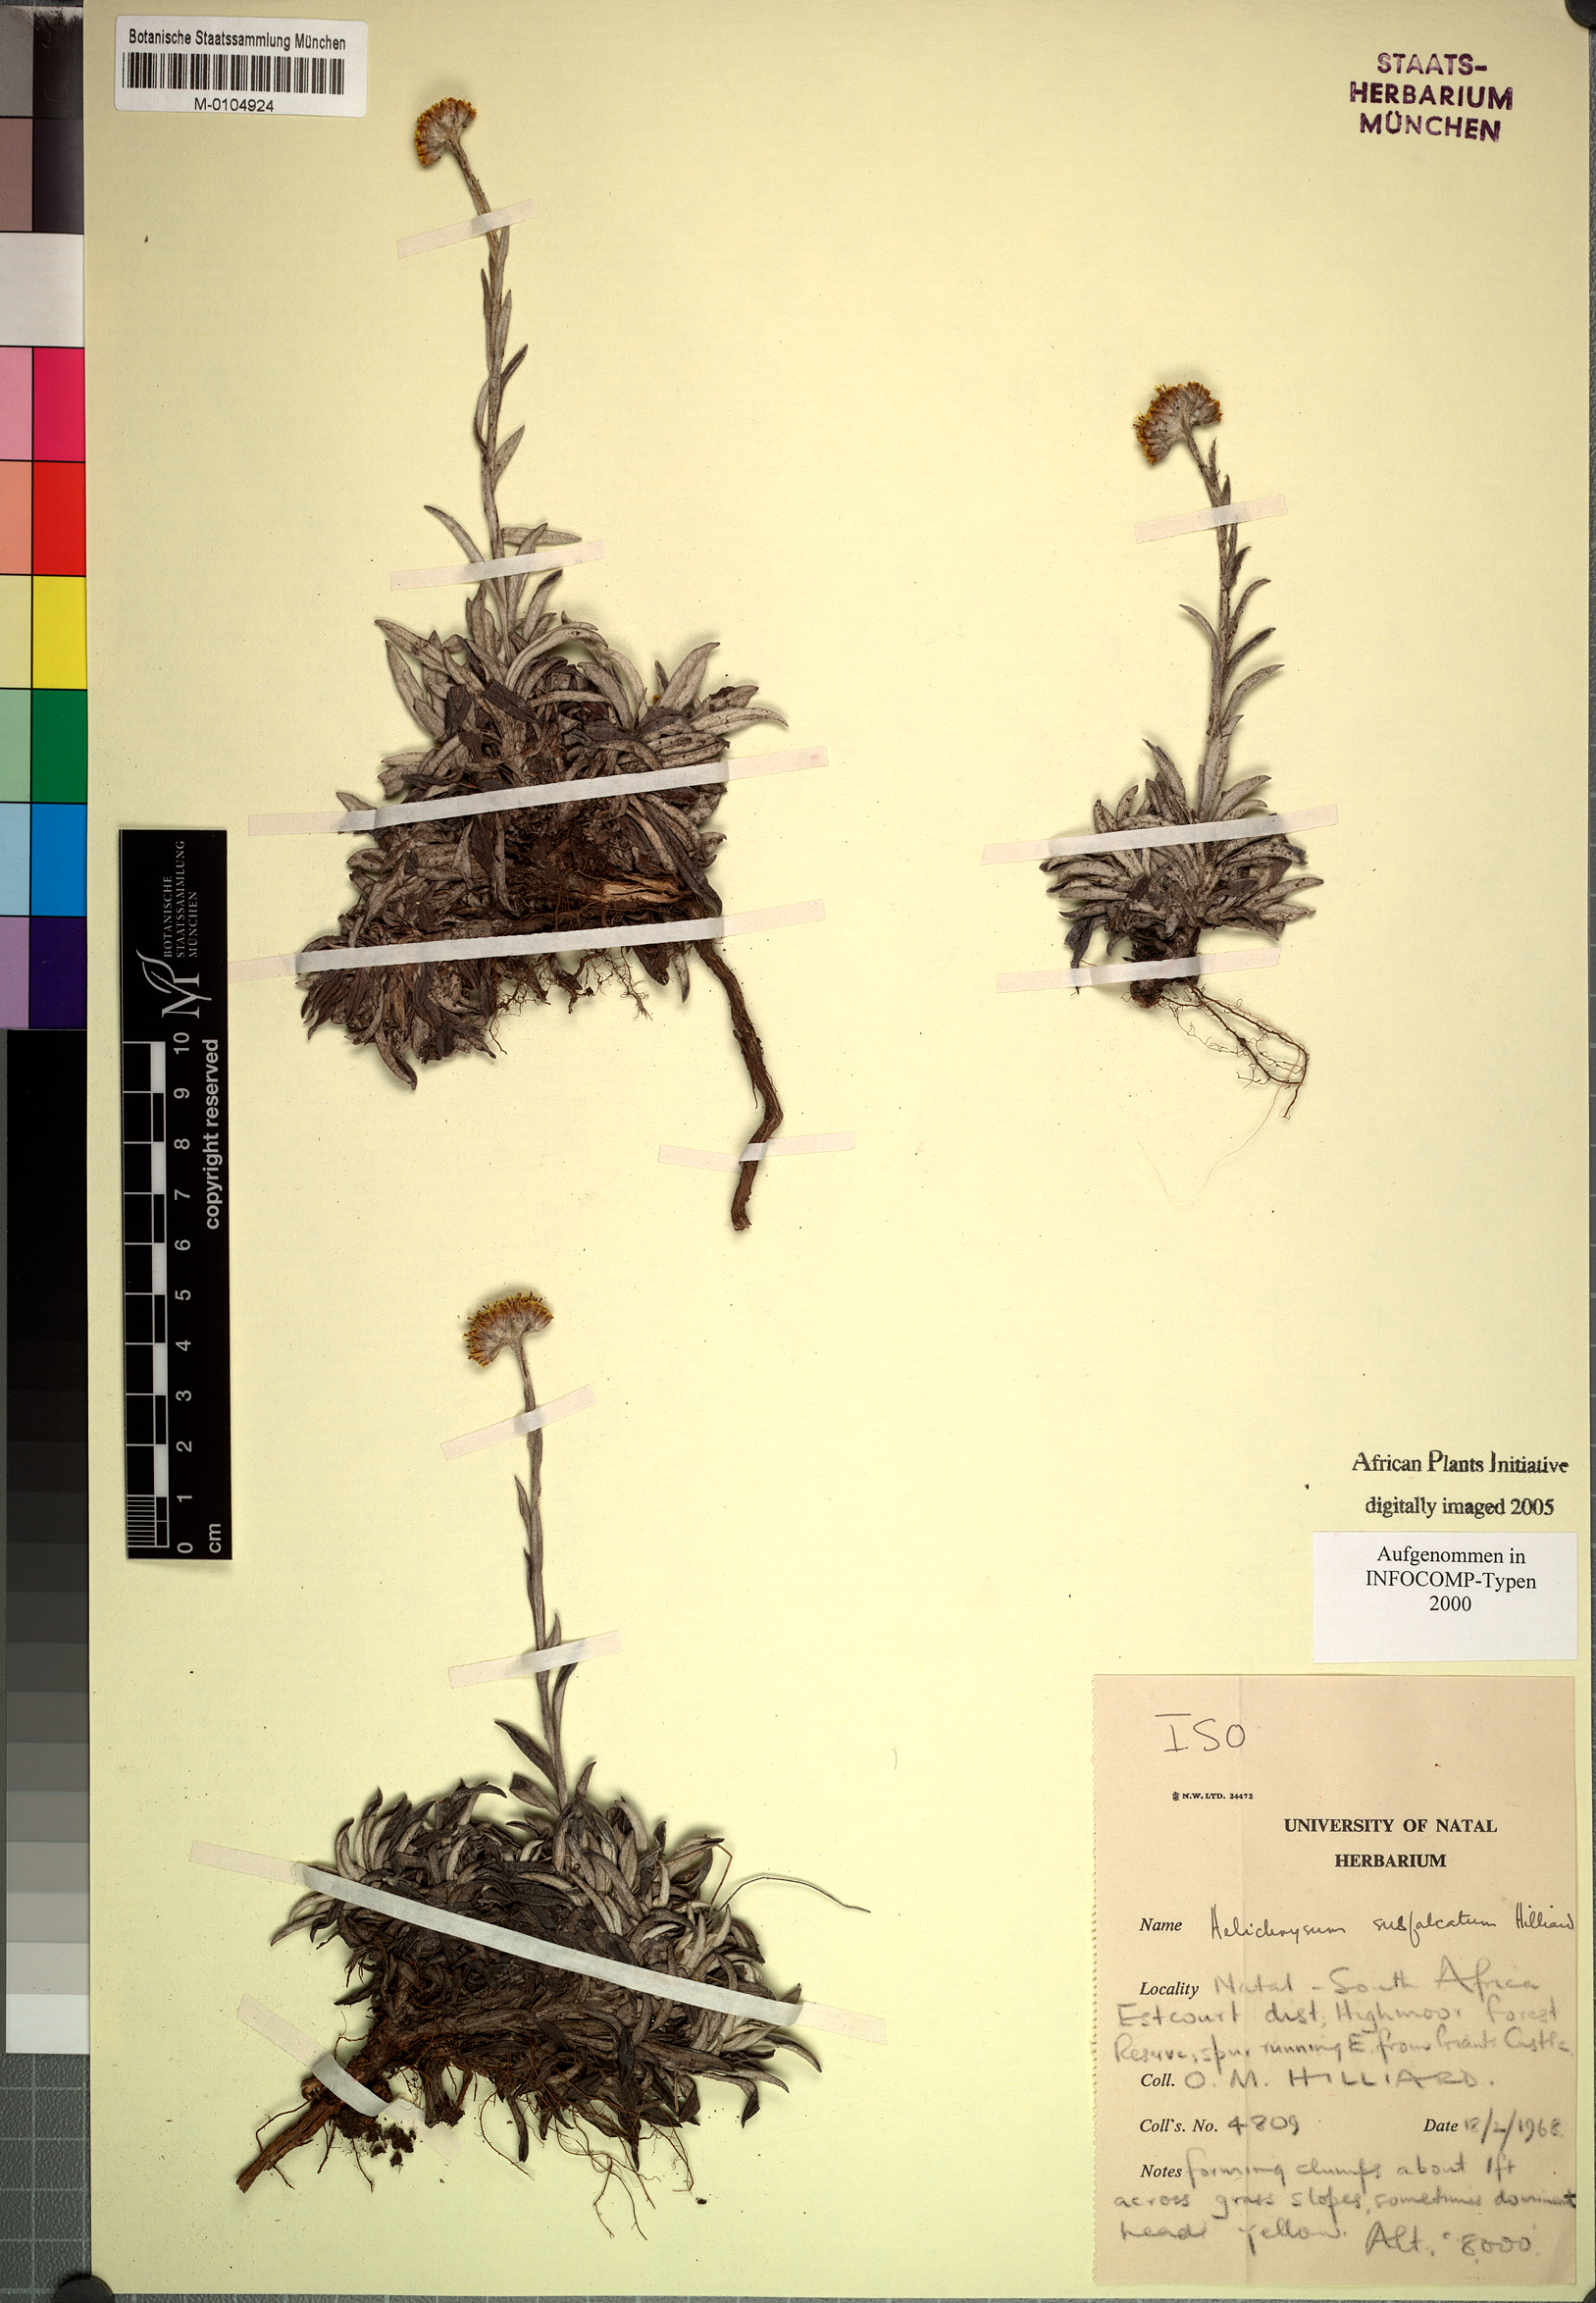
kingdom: Plantae
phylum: Tracheophyta
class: Magnoliopsida
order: Asterales
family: Asteraceae
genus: Helichrysum
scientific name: Helichrysum subfalcatum
